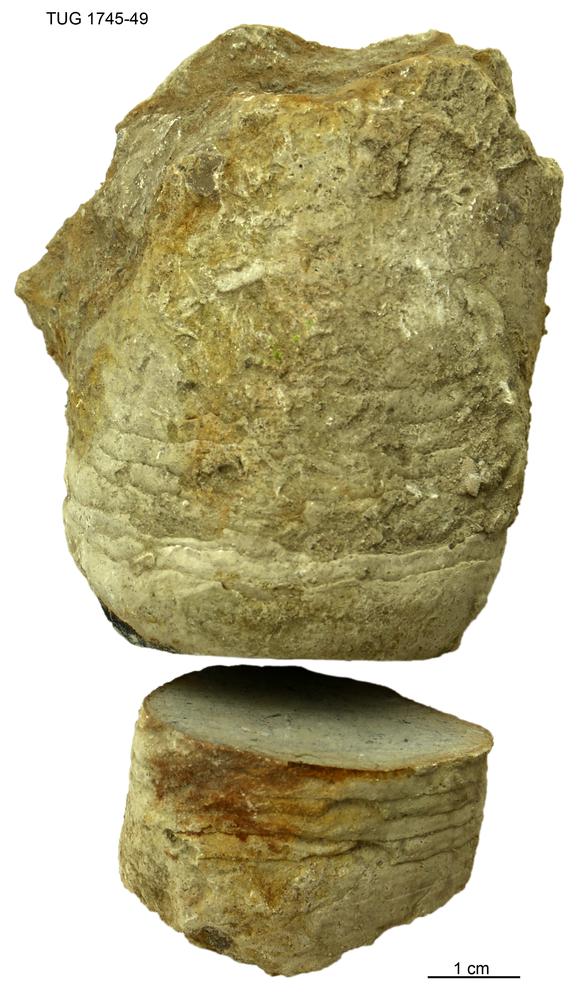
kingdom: Animalia
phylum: Mollusca
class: Cephalopoda
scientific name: Cephalopoda
